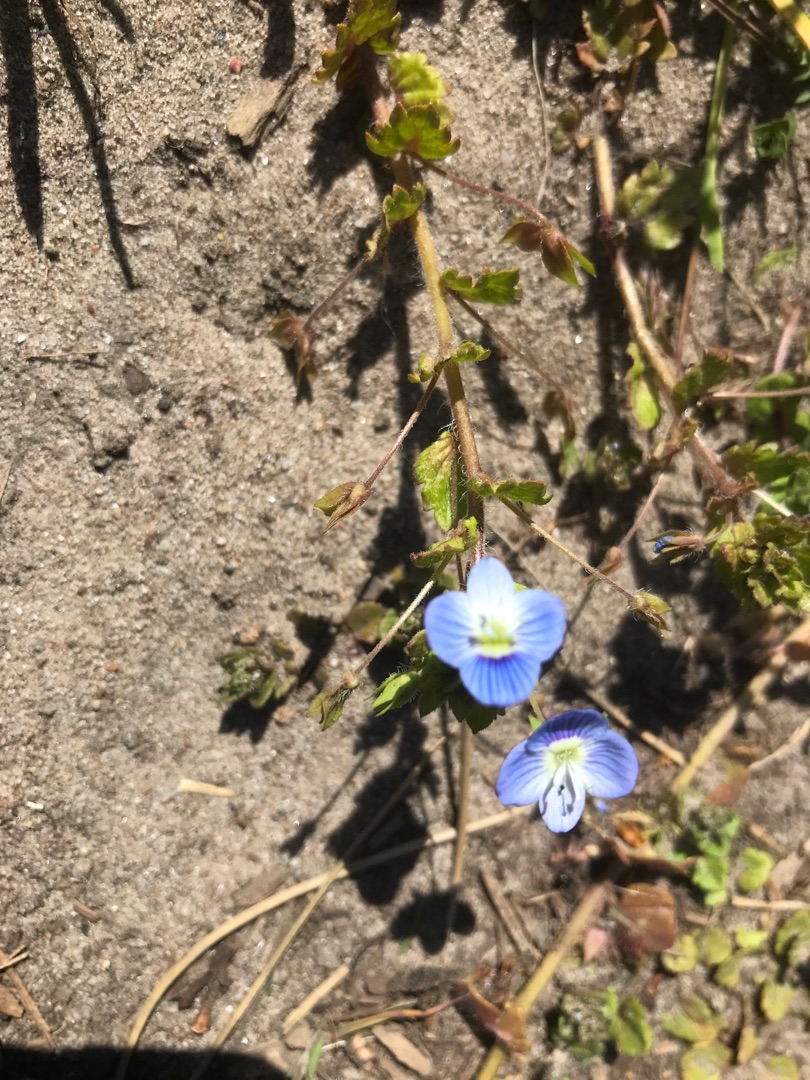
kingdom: Plantae
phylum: Tracheophyta
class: Magnoliopsida
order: Lamiales
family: Plantaginaceae
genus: Veronica
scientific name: Veronica persica
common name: Storkronet ærenpris
